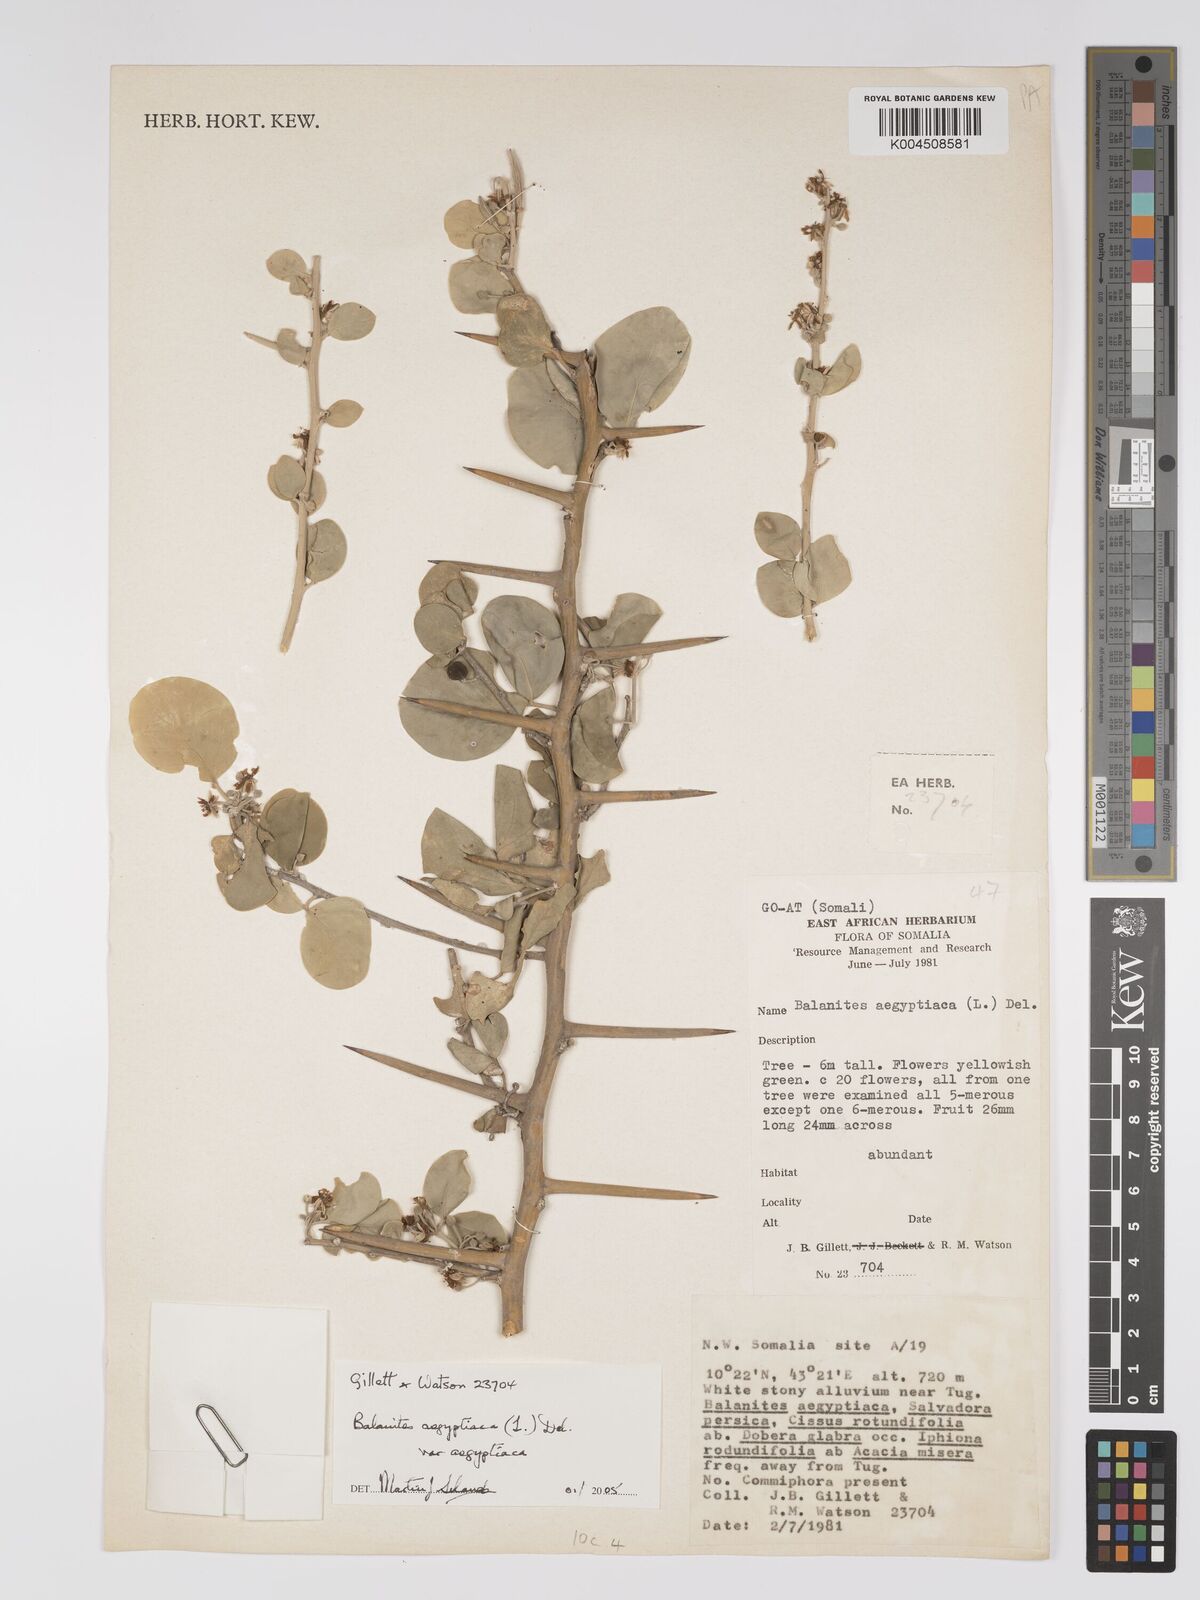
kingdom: Plantae
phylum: Tracheophyta
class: Magnoliopsida
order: Zygophyllales
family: Zygophyllaceae
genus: Balanites
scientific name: Balanites aegyptiaca
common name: Balanites
